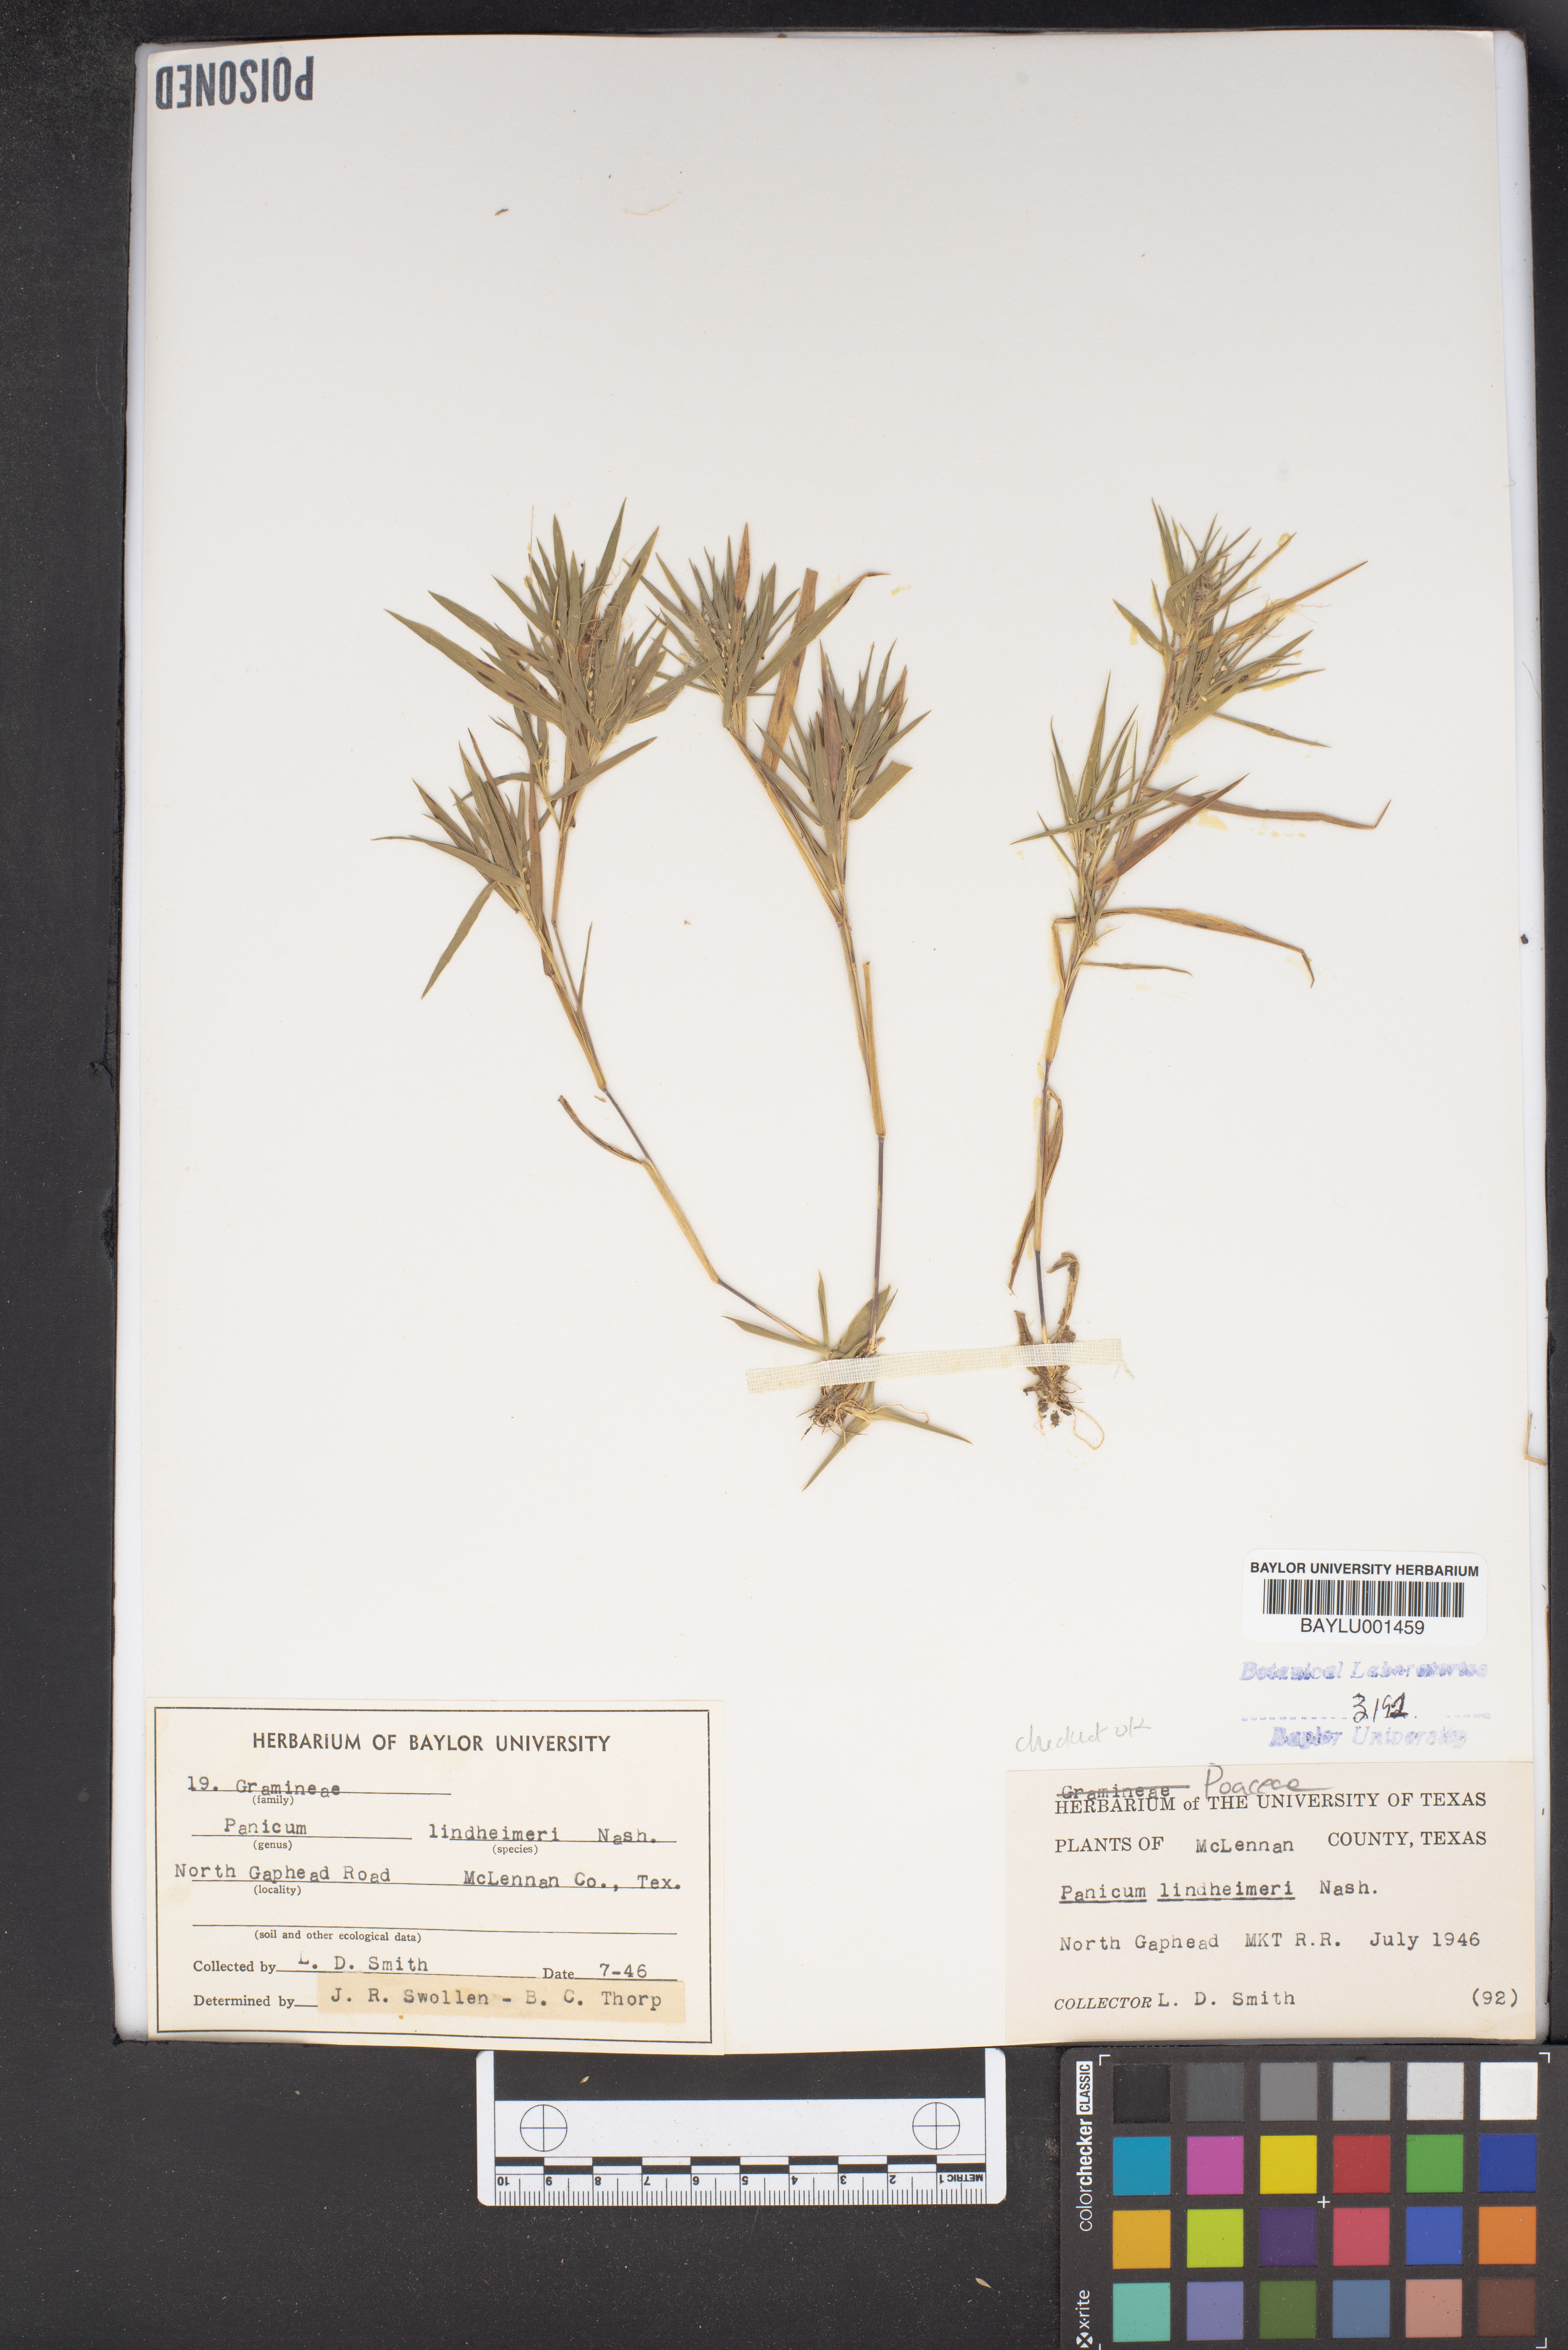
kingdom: Plantae
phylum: Tracheophyta
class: Liliopsida
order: Poales
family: Poaceae
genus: Dichanthelium
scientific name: Dichanthelium lindheimeri
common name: Lindheimer's panicgrass
